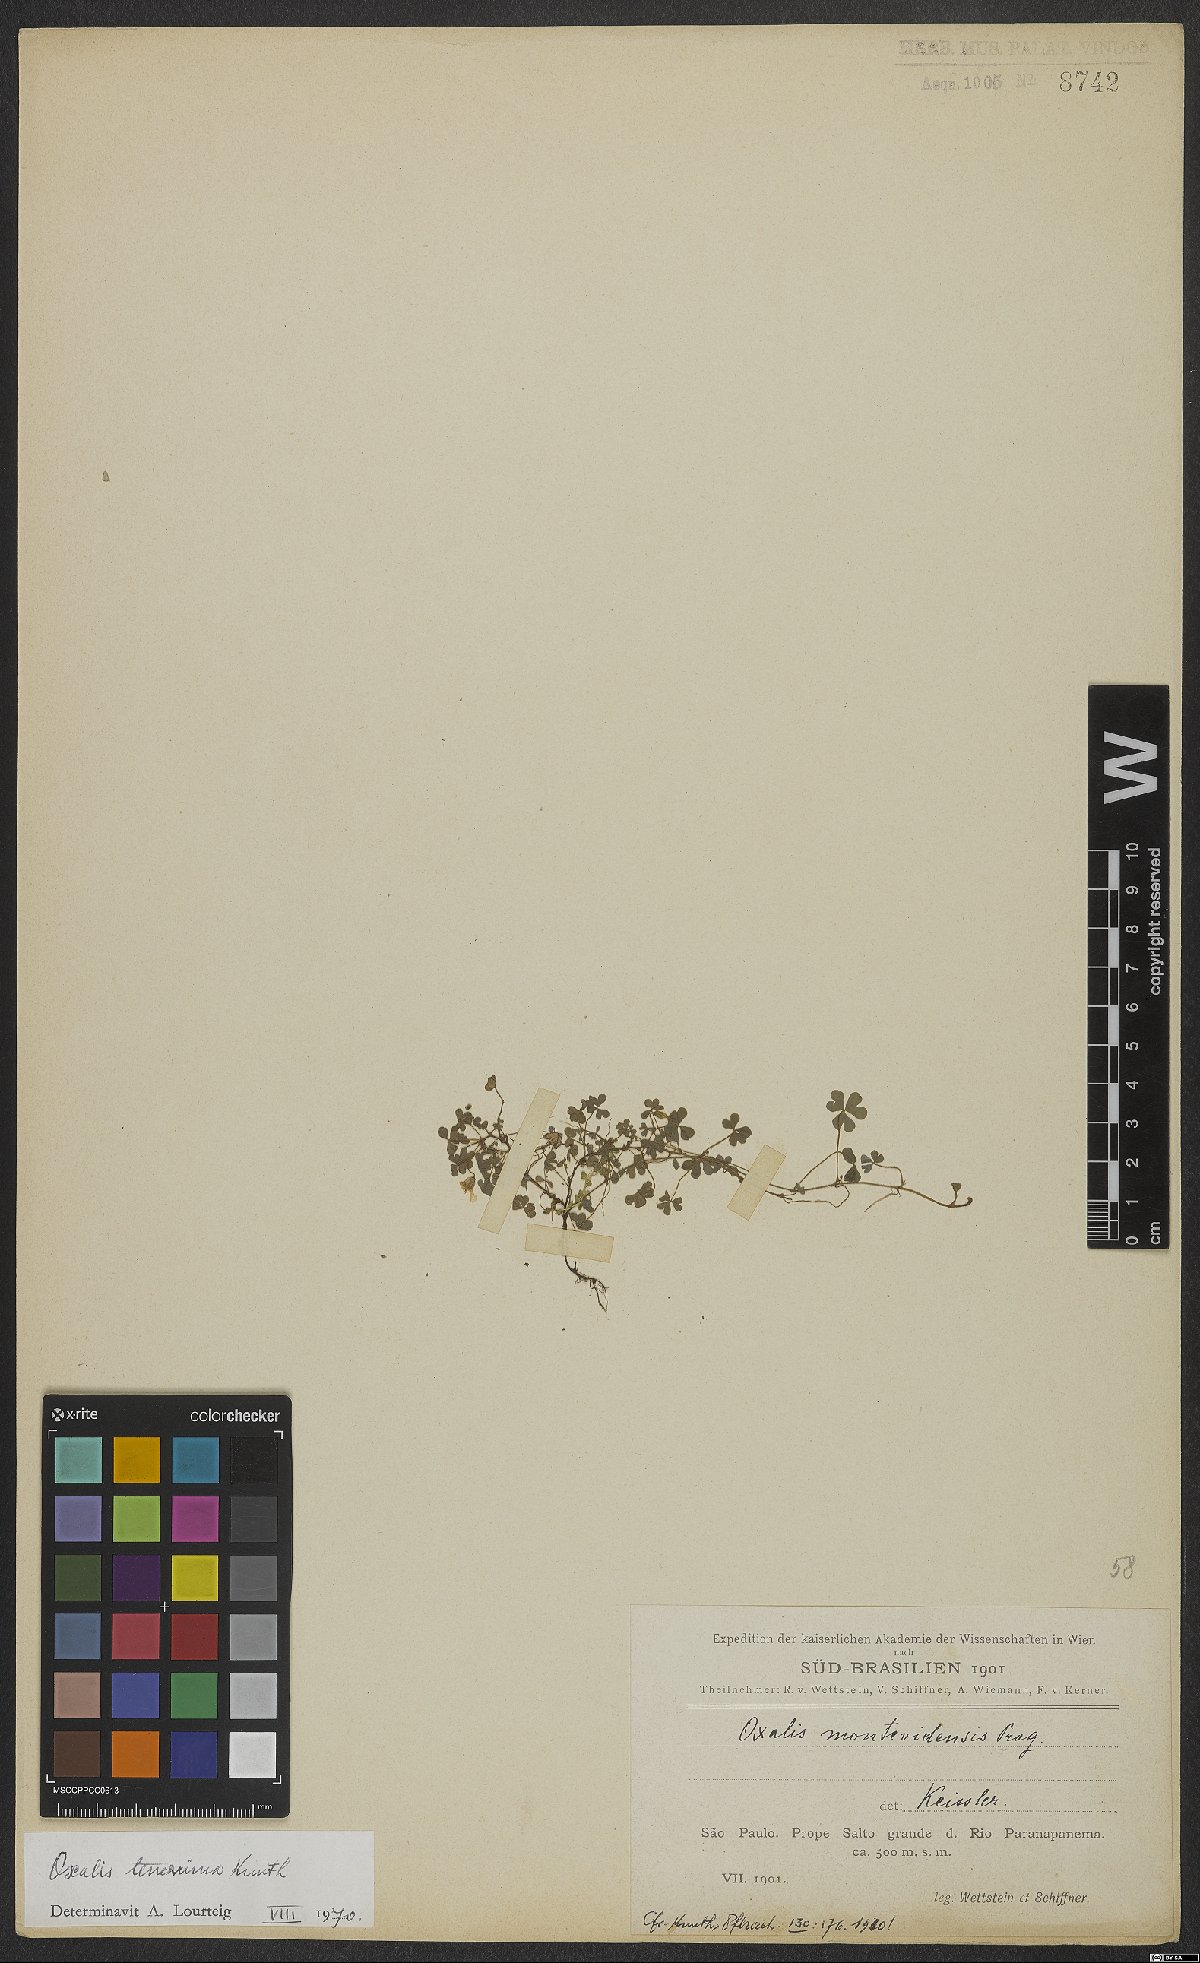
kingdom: Plantae
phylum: Tracheophyta
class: Magnoliopsida
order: Oxalidales
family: Oxalidaceae
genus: Oxalis
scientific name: Oxalis tenerrima
